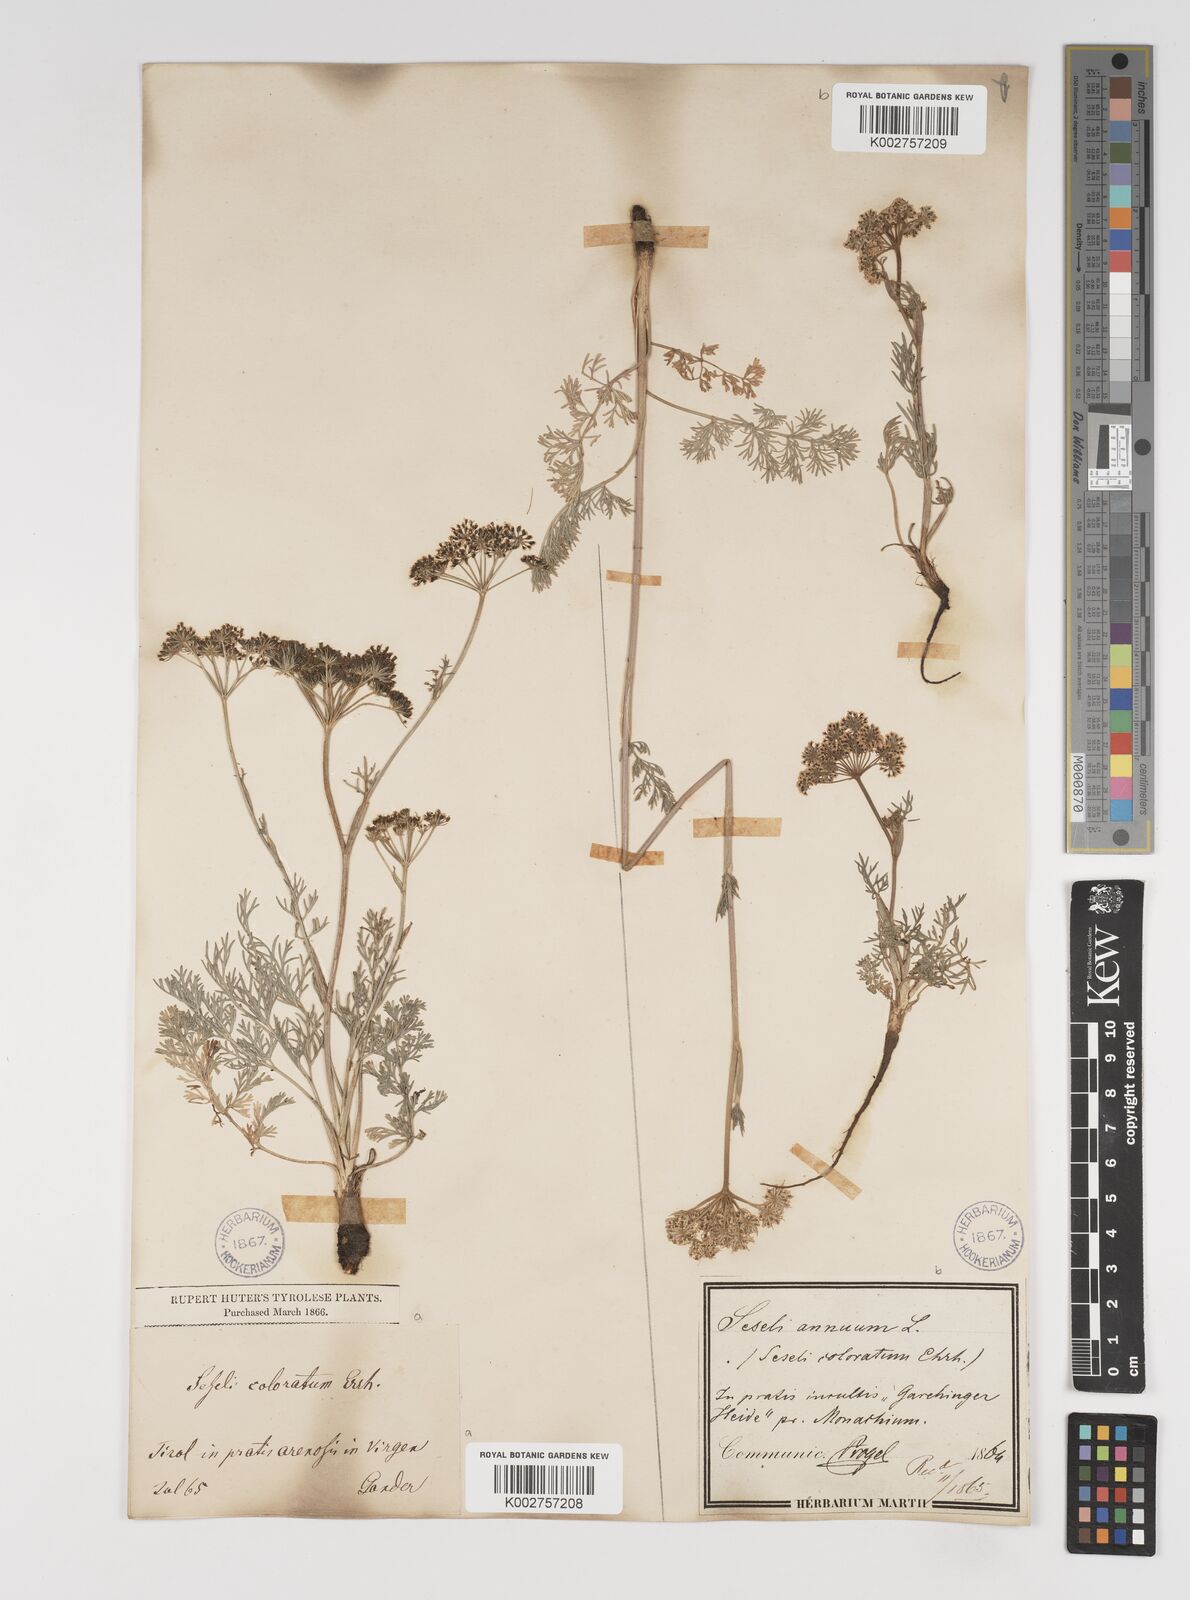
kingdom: Plantae
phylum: Tracheophyta
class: Magnoliopsida
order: Apiales
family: Apiaceae
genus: Seseli
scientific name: Seseli annuum
